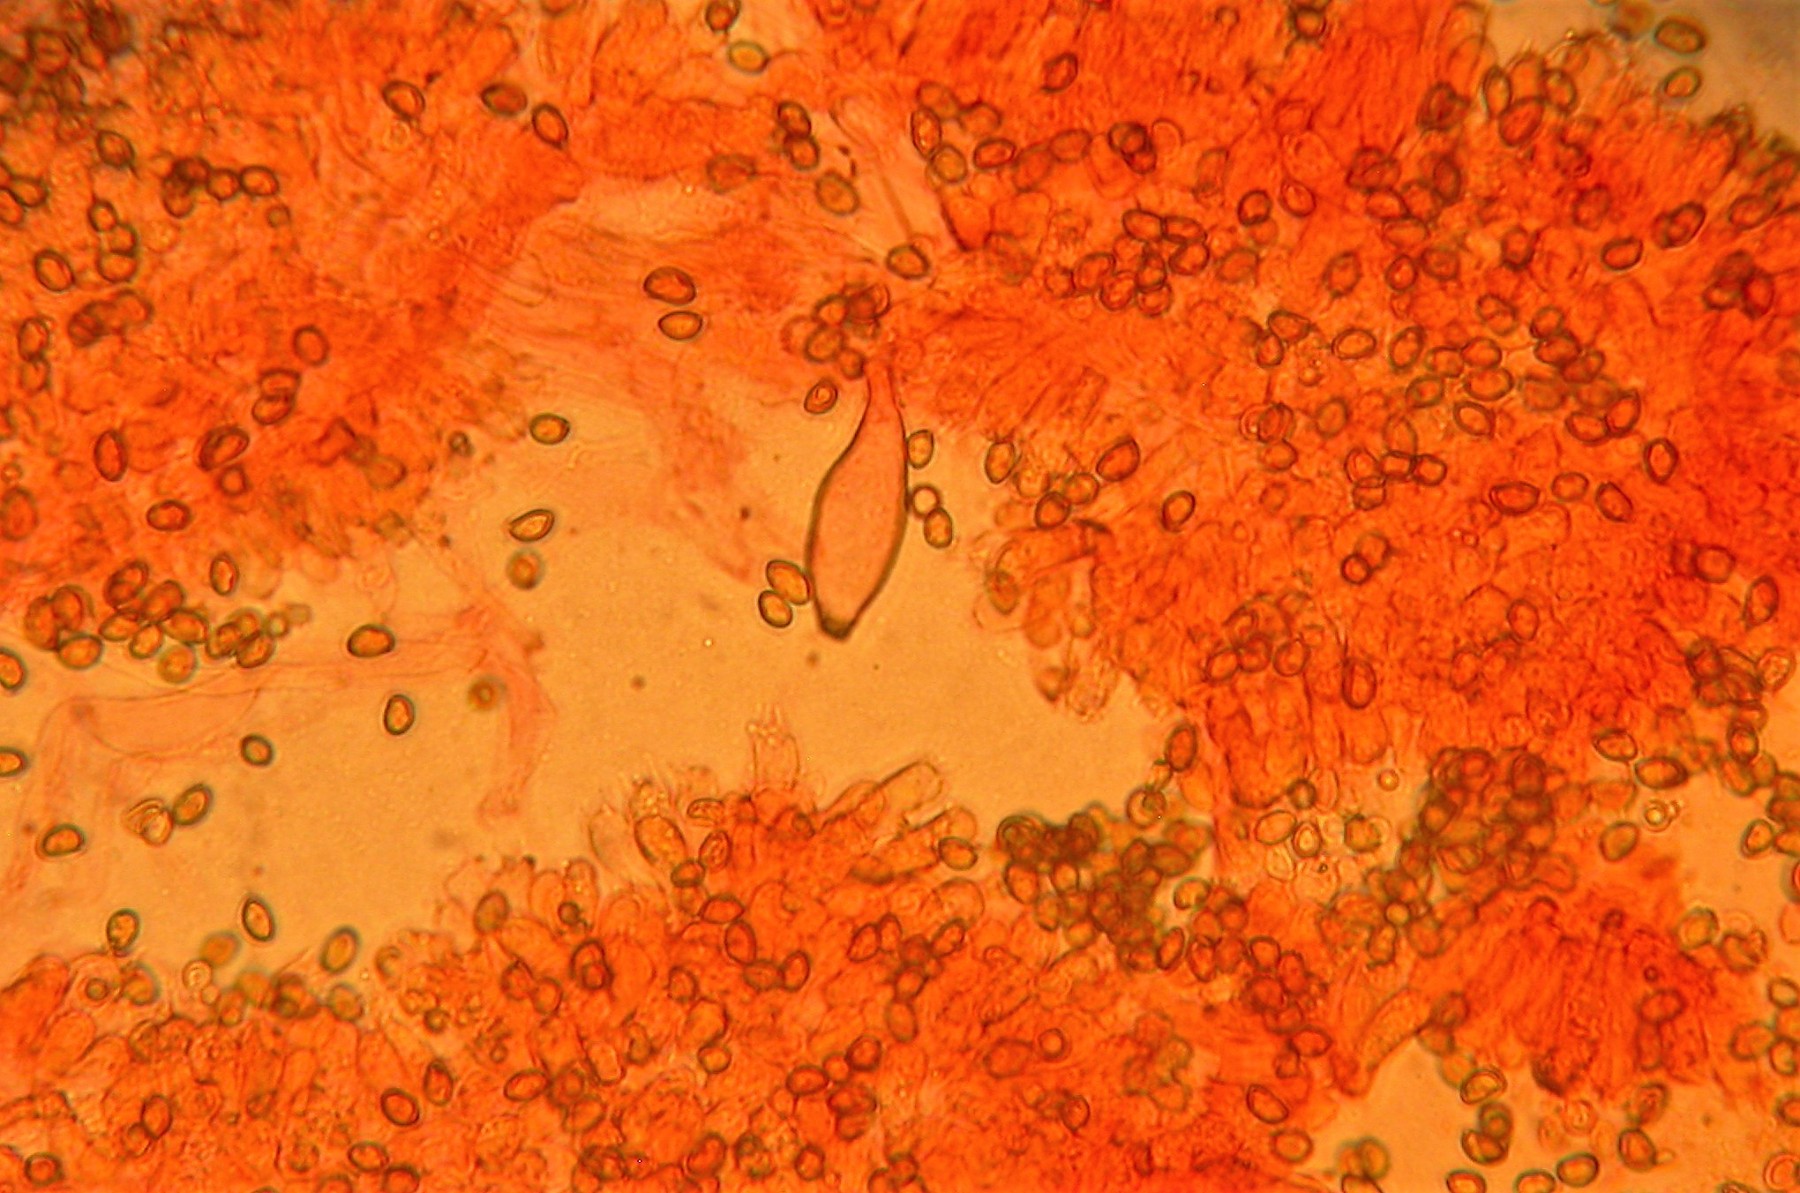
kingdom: Fungi
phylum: Basidiomycota
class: Agaricomycetes
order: Agaricales
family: Inocybaceae
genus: Inocybe
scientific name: Inocybe erinaceomorpha
